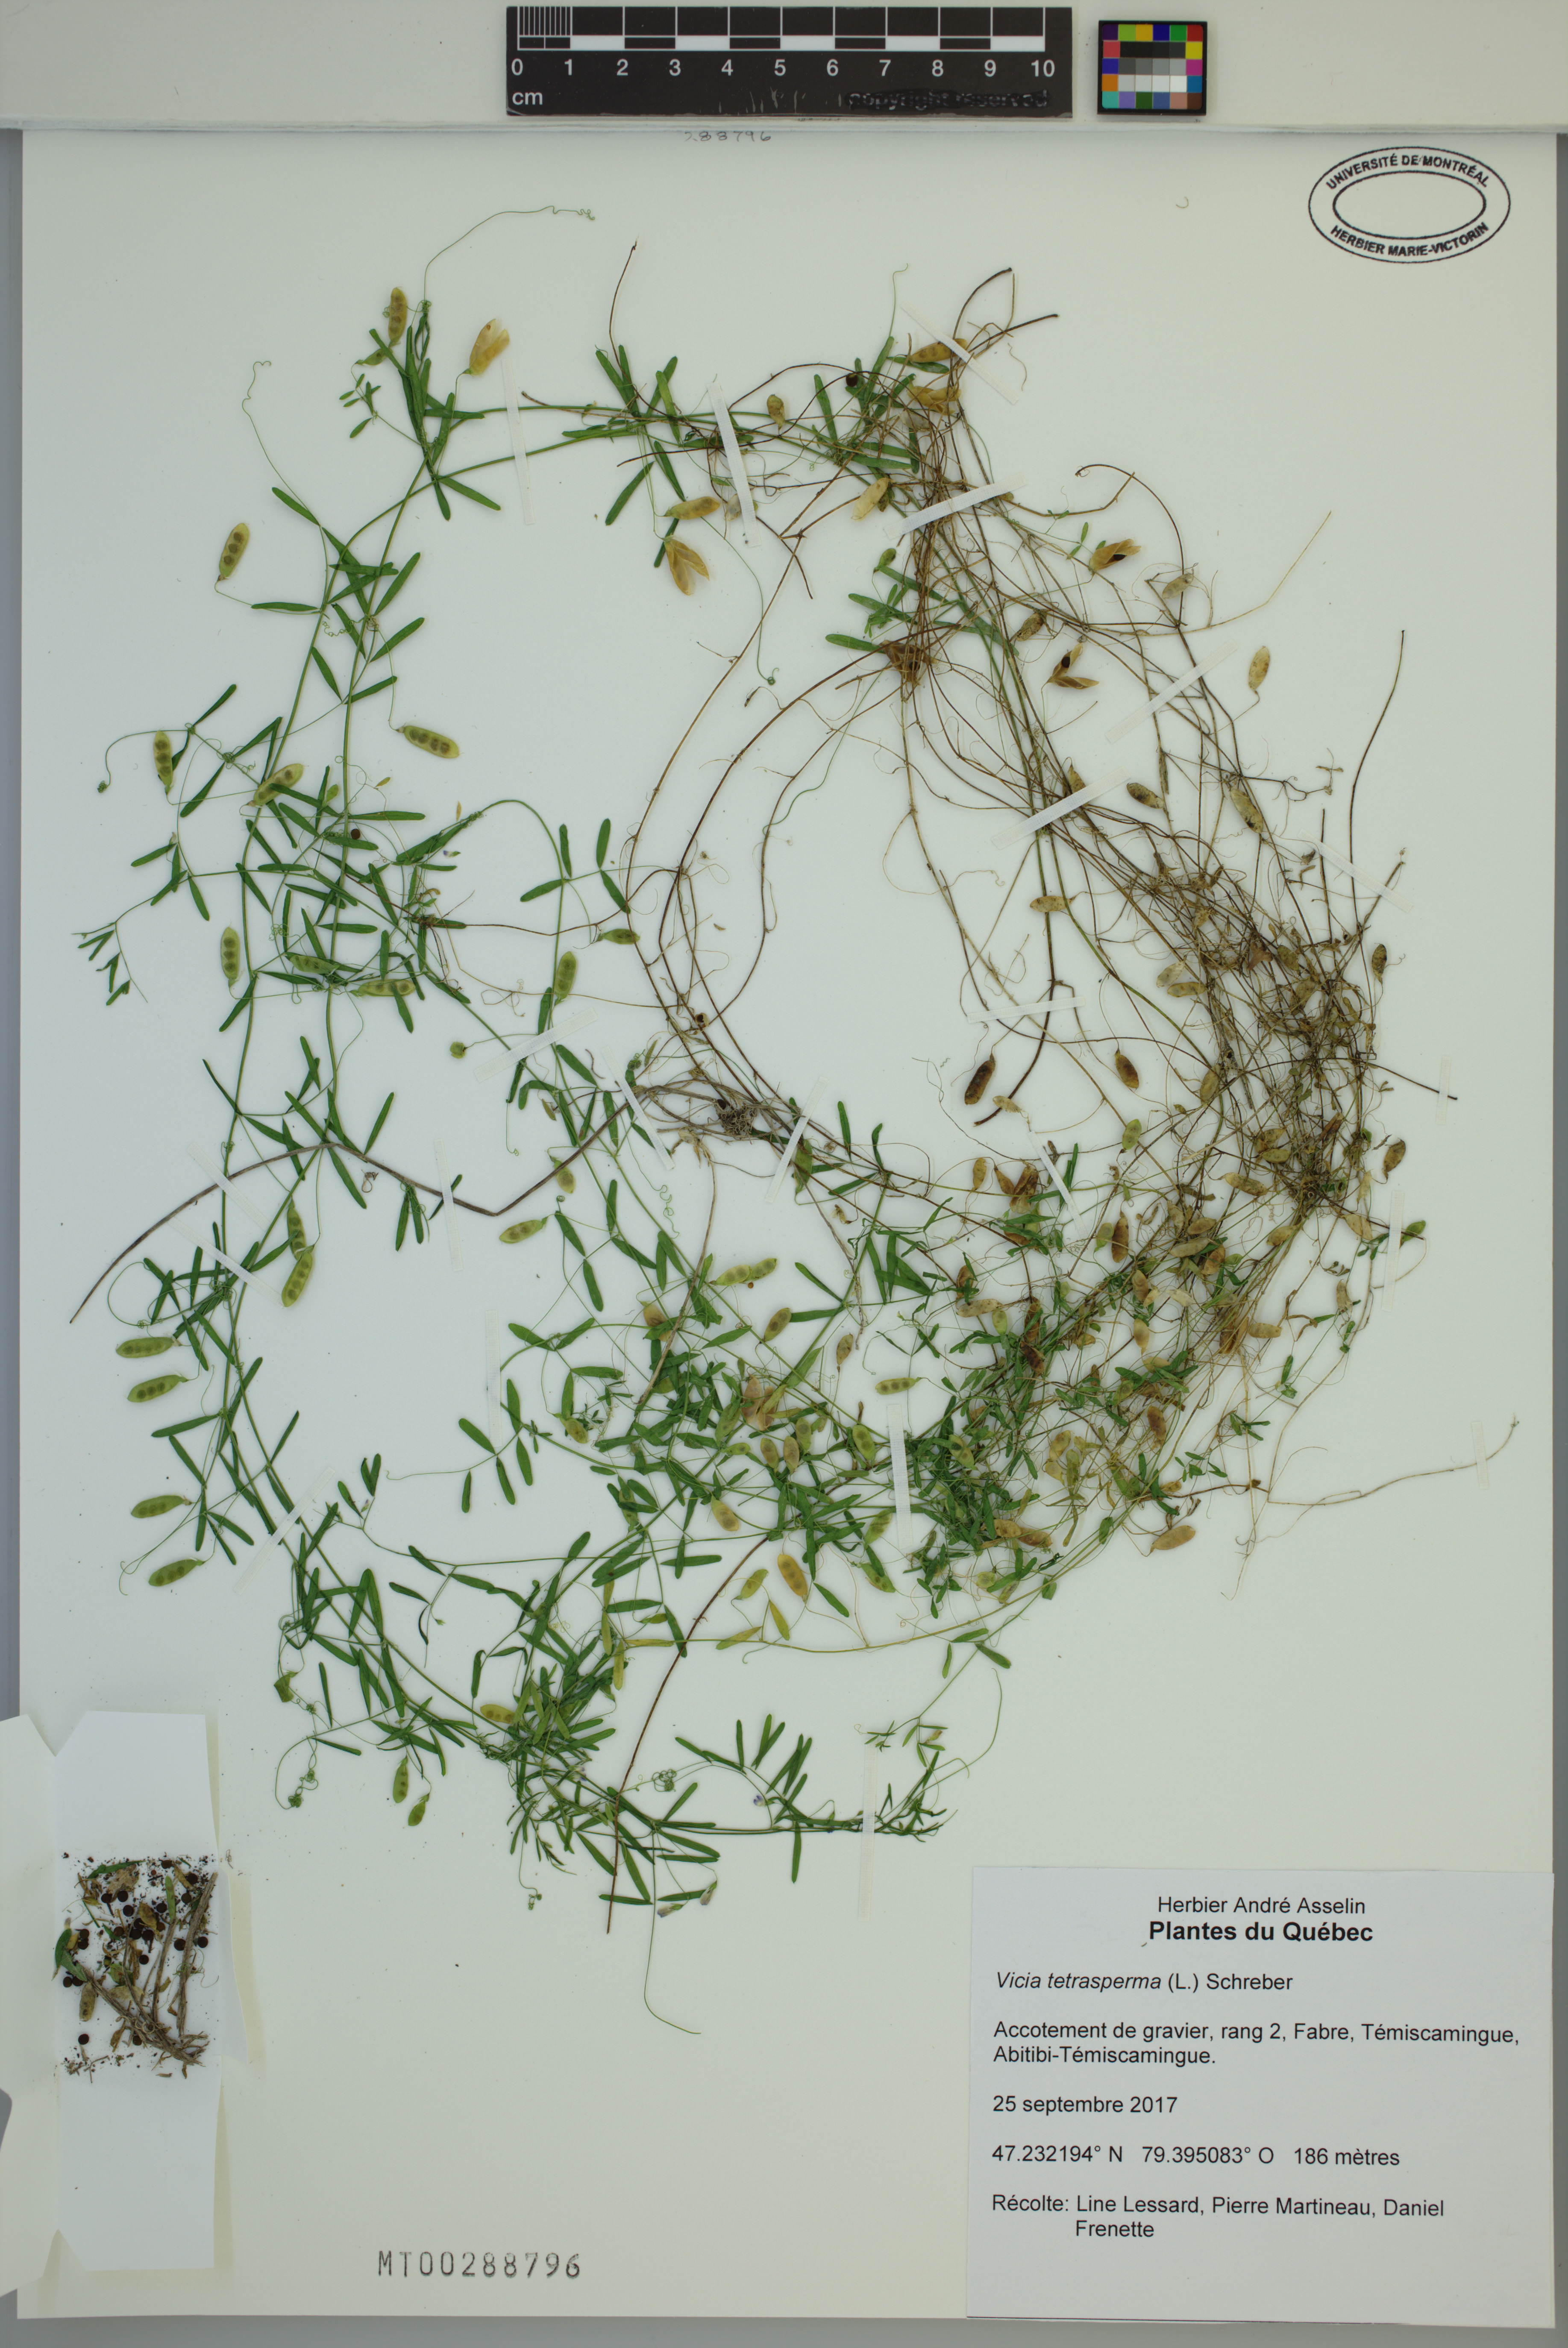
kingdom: Plantae
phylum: Tracheophyta
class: Magnoliopsida
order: Fabales
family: Fabaceae
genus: Vicia
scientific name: Vicia tetrasperma
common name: Smooth tare
